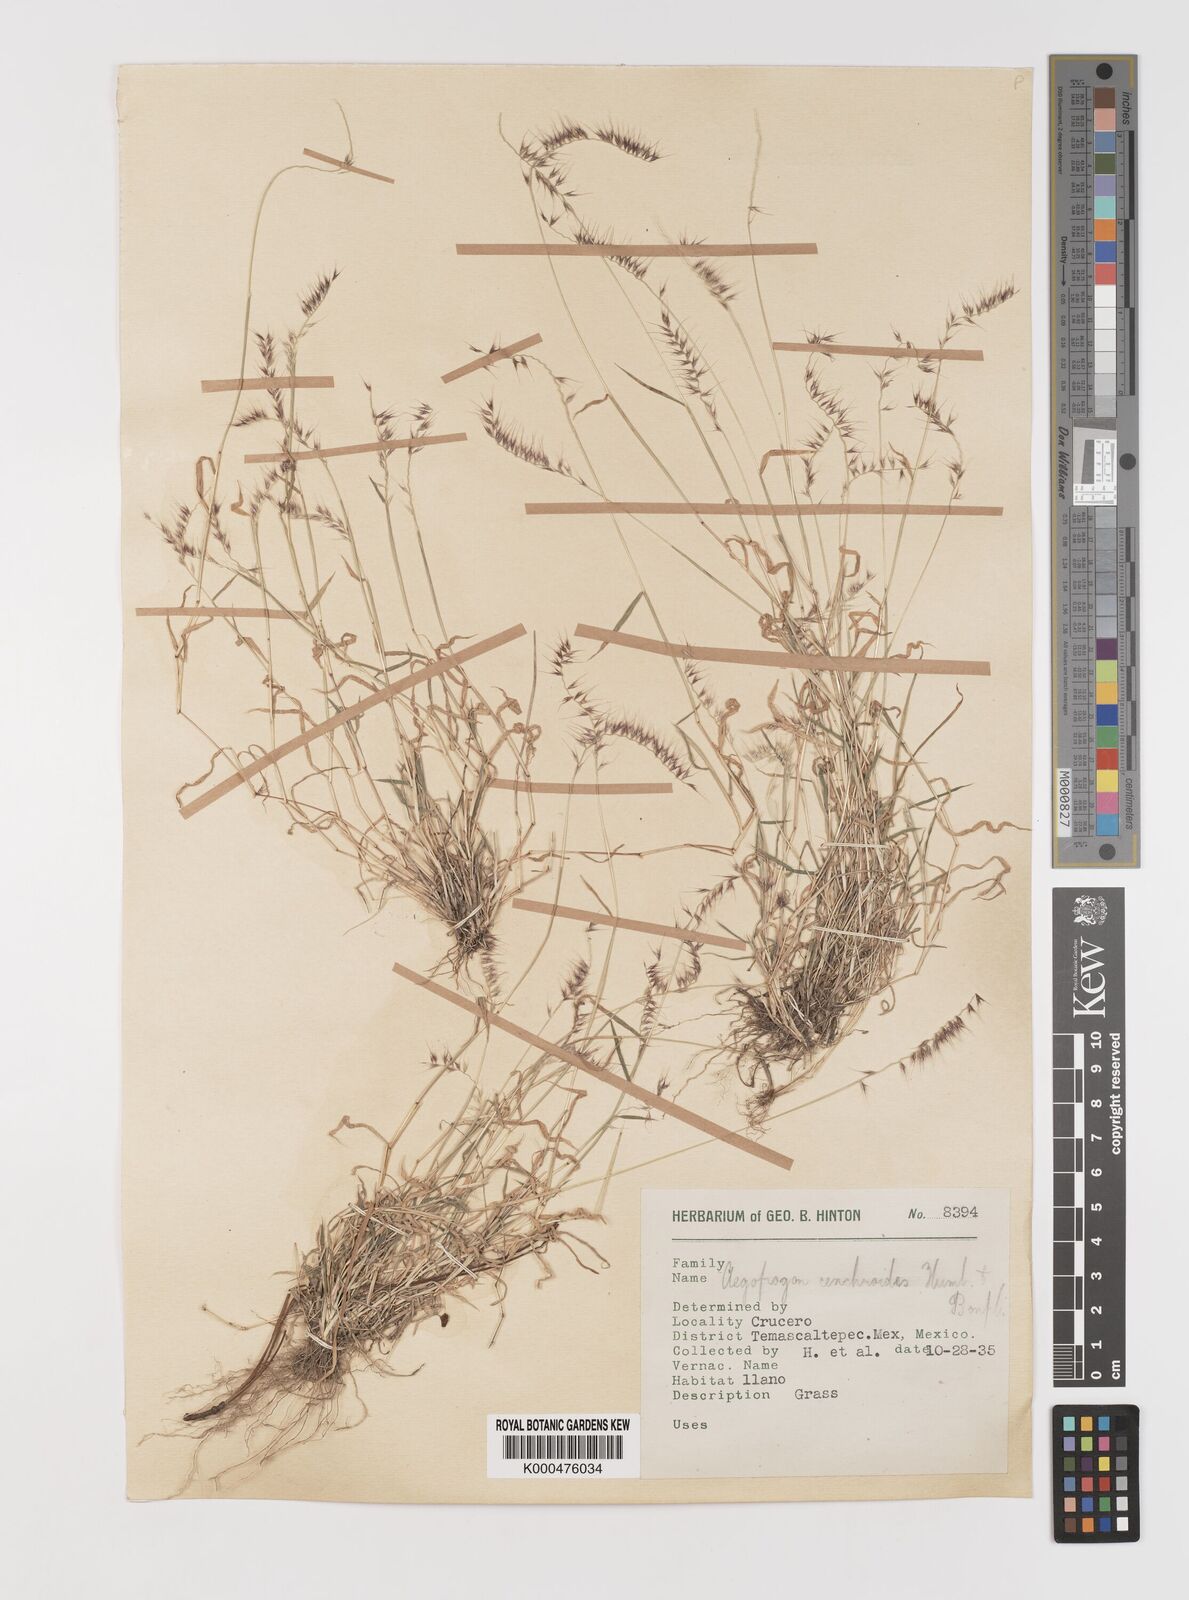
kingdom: Plantae
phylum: Tracheophyta
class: Liliopsida
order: Poales
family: Poaceae
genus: Muhlenbergia
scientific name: Muhlenbergia cenchroides
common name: Relaxgrass
